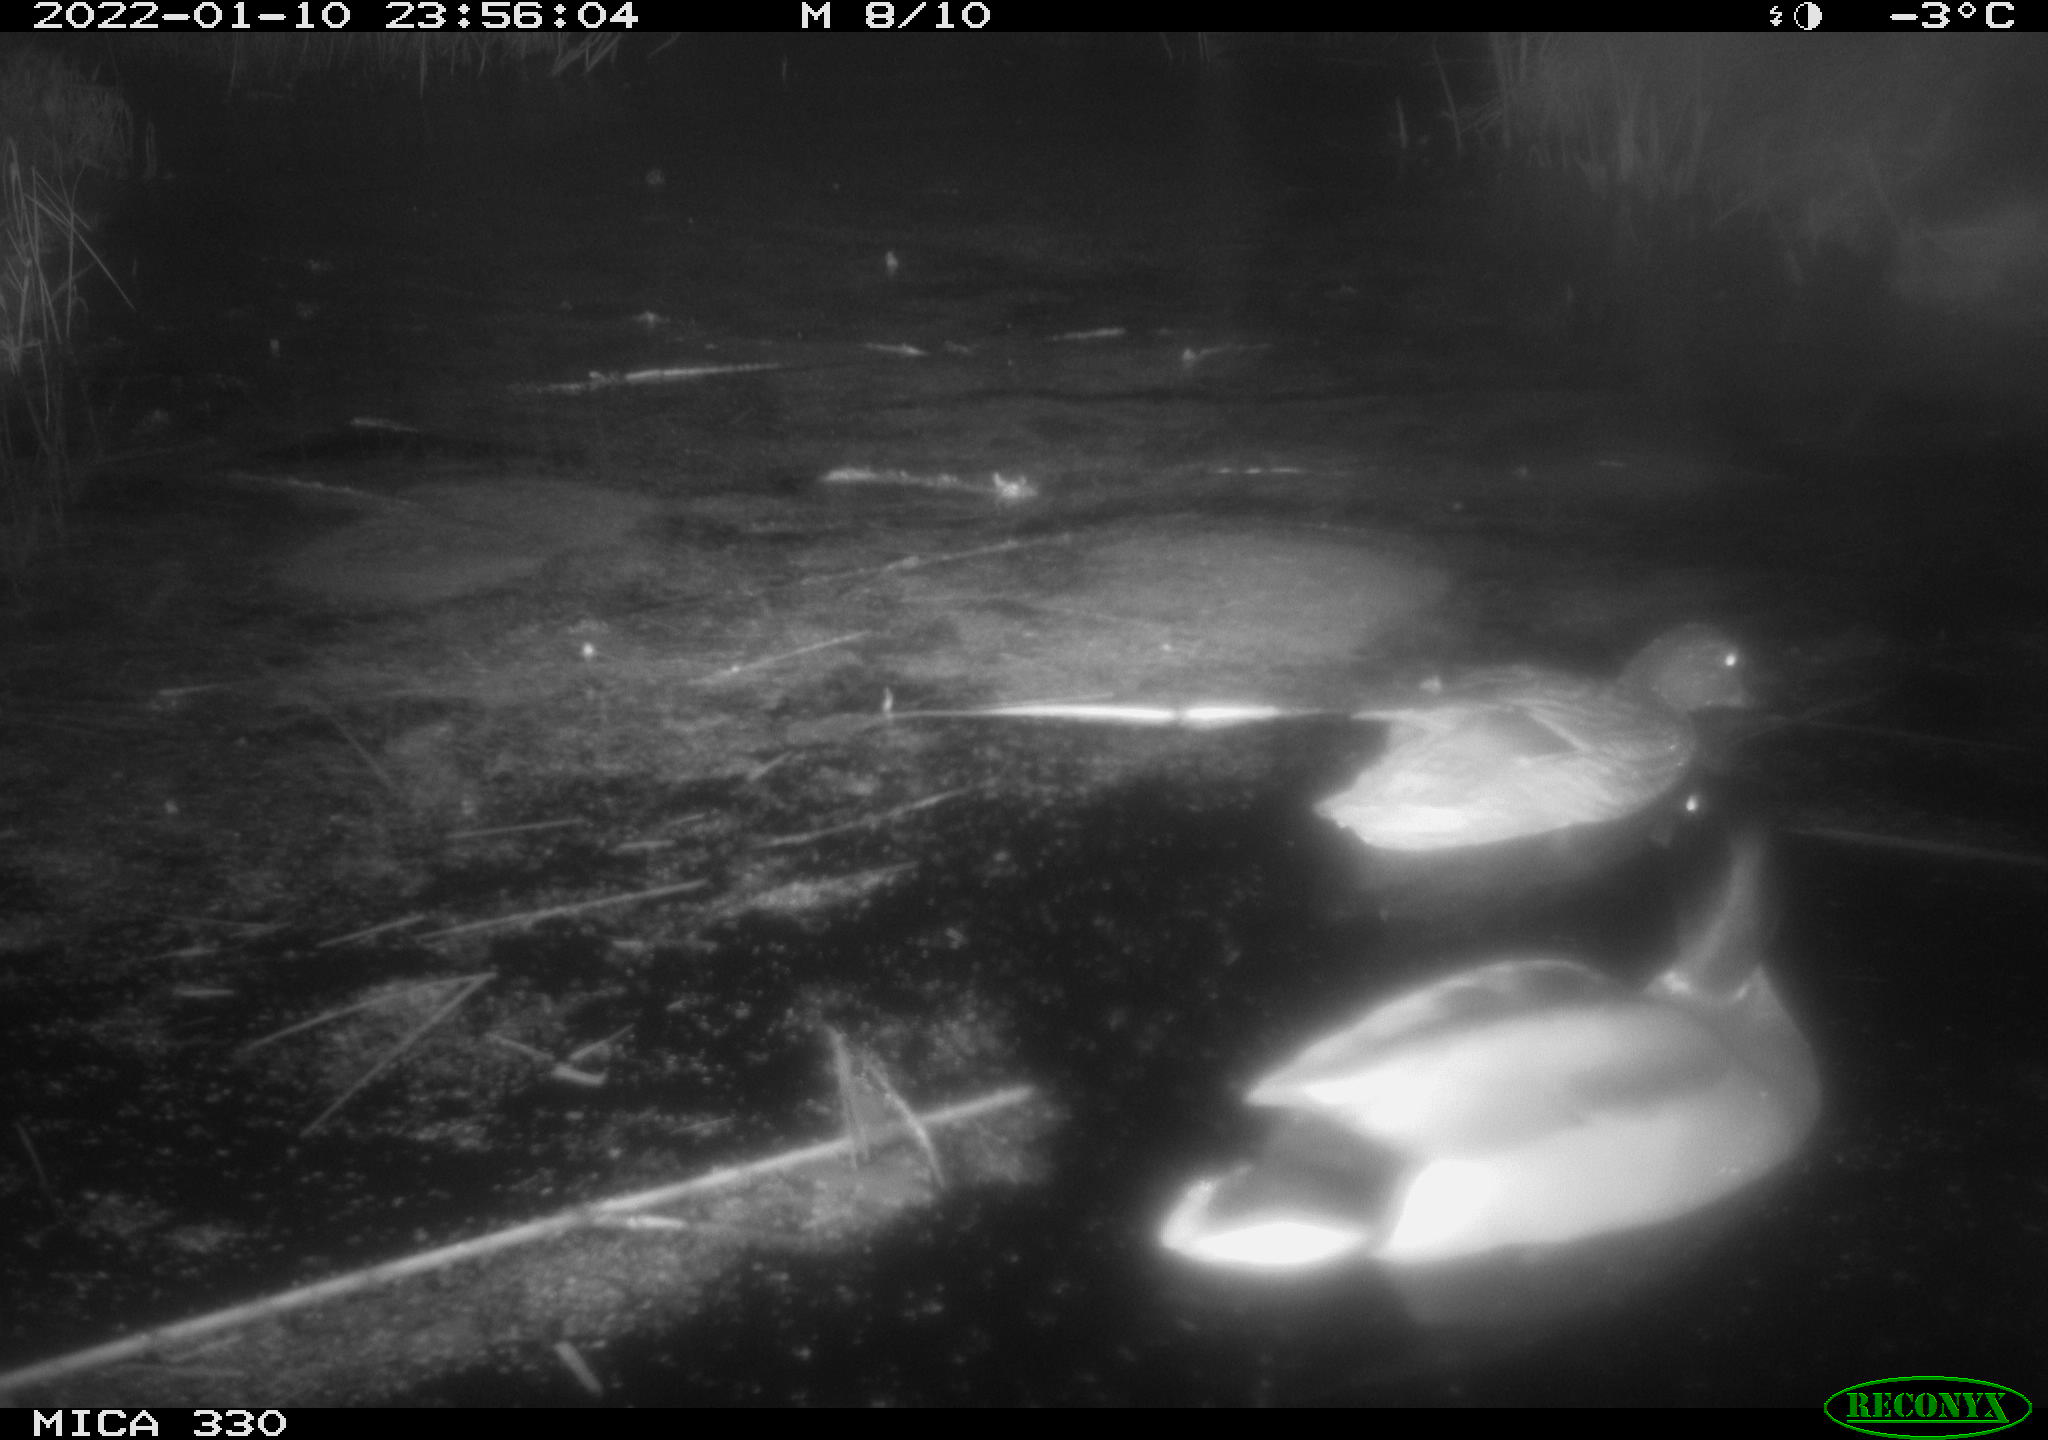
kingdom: Animalia
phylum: Chordata
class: Aves
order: Anseriformes
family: Anatidae
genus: Anas
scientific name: Anas platyrhynchos
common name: Mallard
